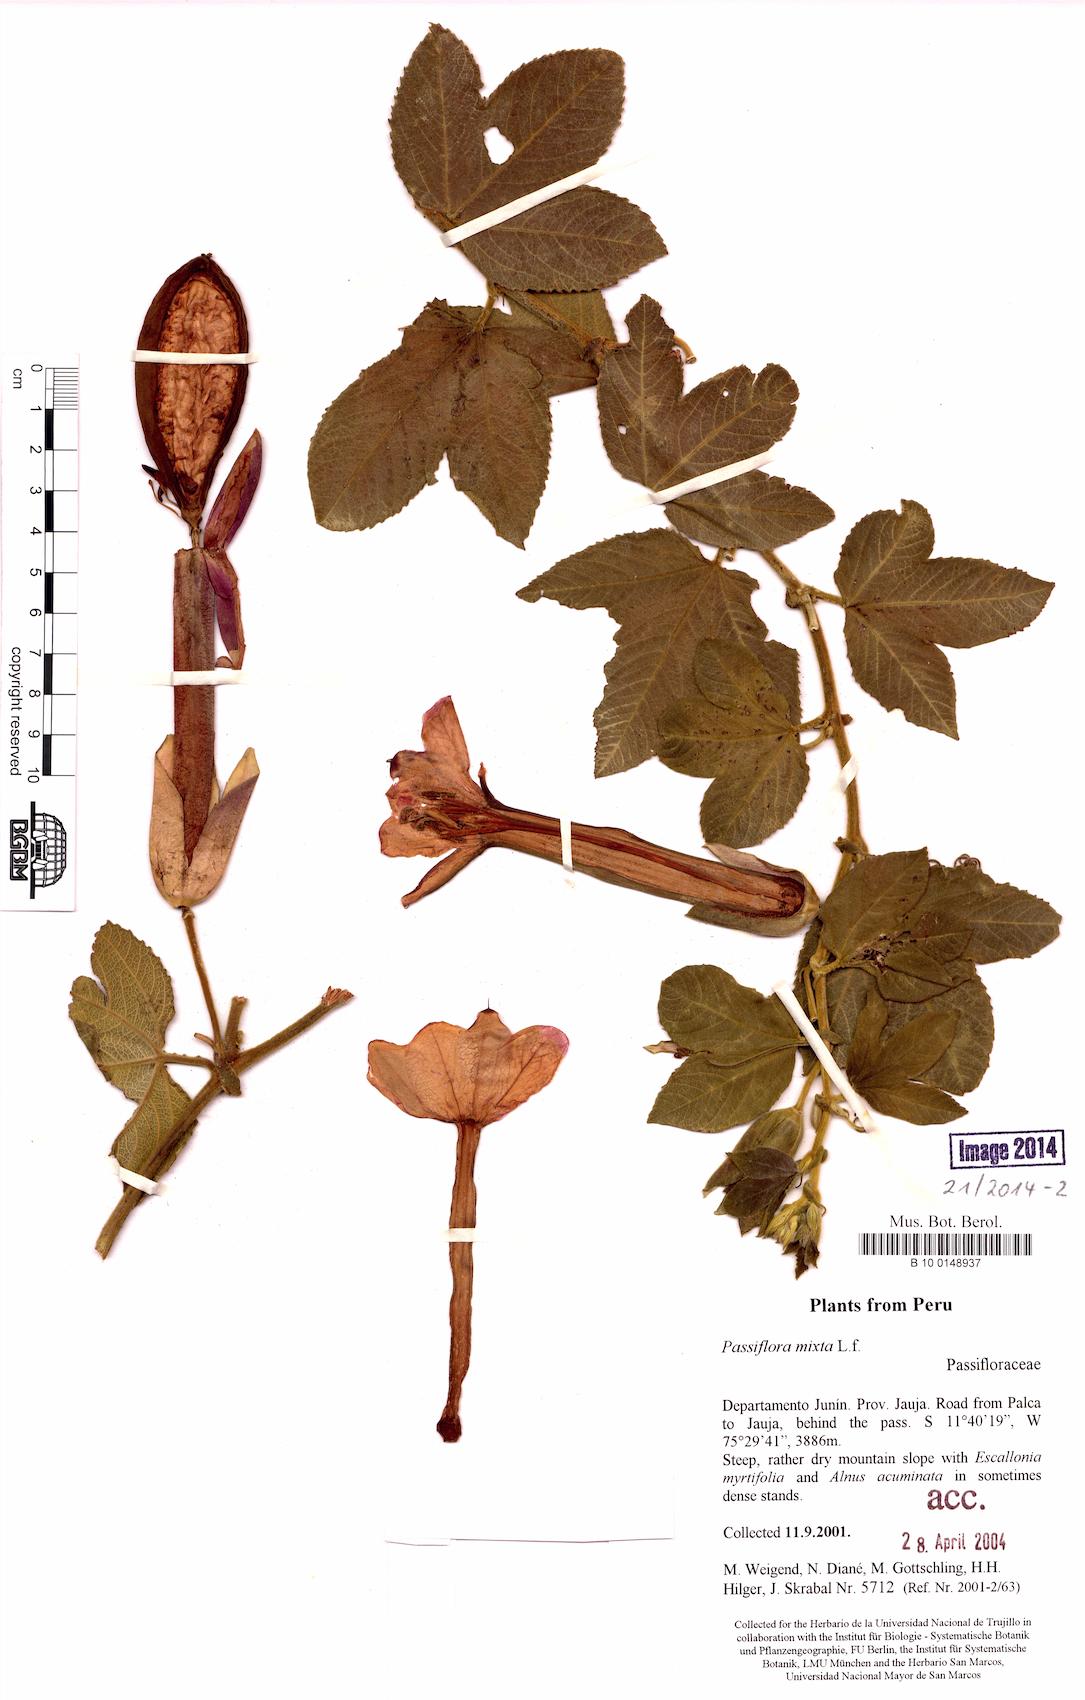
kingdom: Plantae
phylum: Tracheophyta
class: Magnoliopsida
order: Malpighiales
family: Passifloraceae
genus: Passiflora
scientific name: Passiflora mixta
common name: Passion flower
